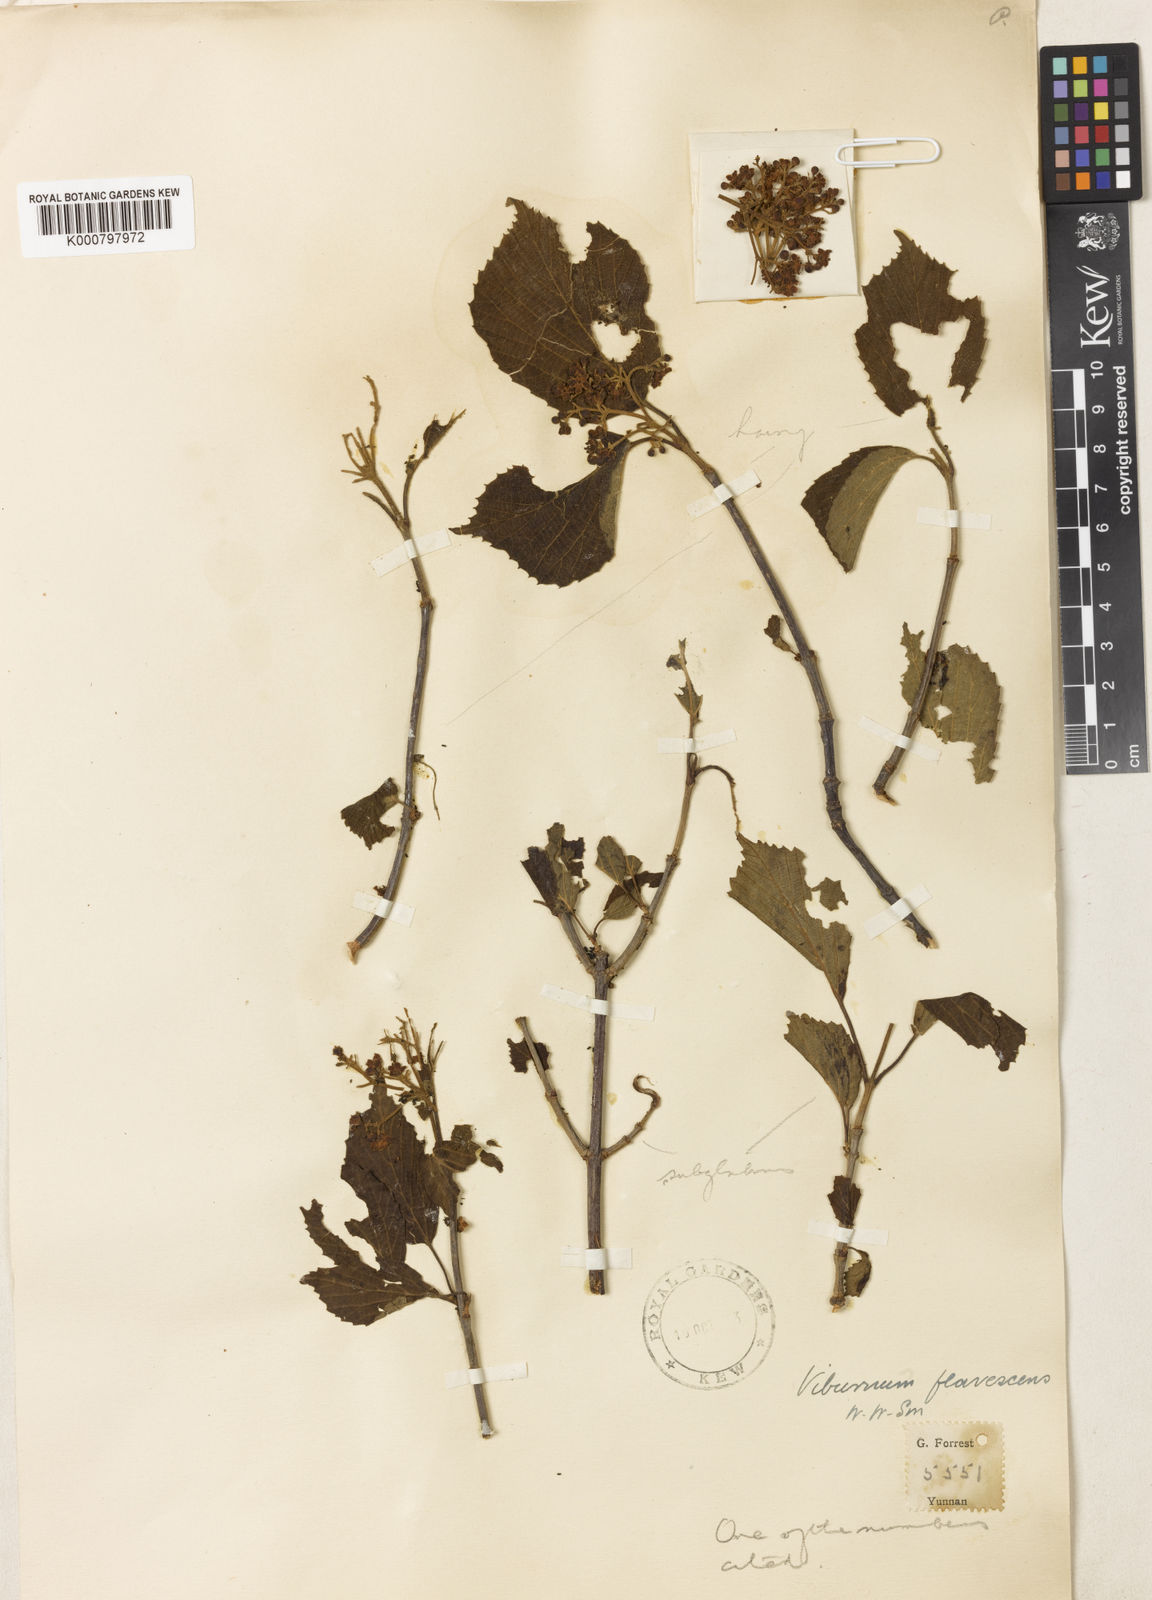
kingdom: Plantae
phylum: Tracheophyta
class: Magnoliopsida
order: Dipsacales
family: Viburnaceae
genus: Viburnum
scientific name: Viburnum betulifolium
